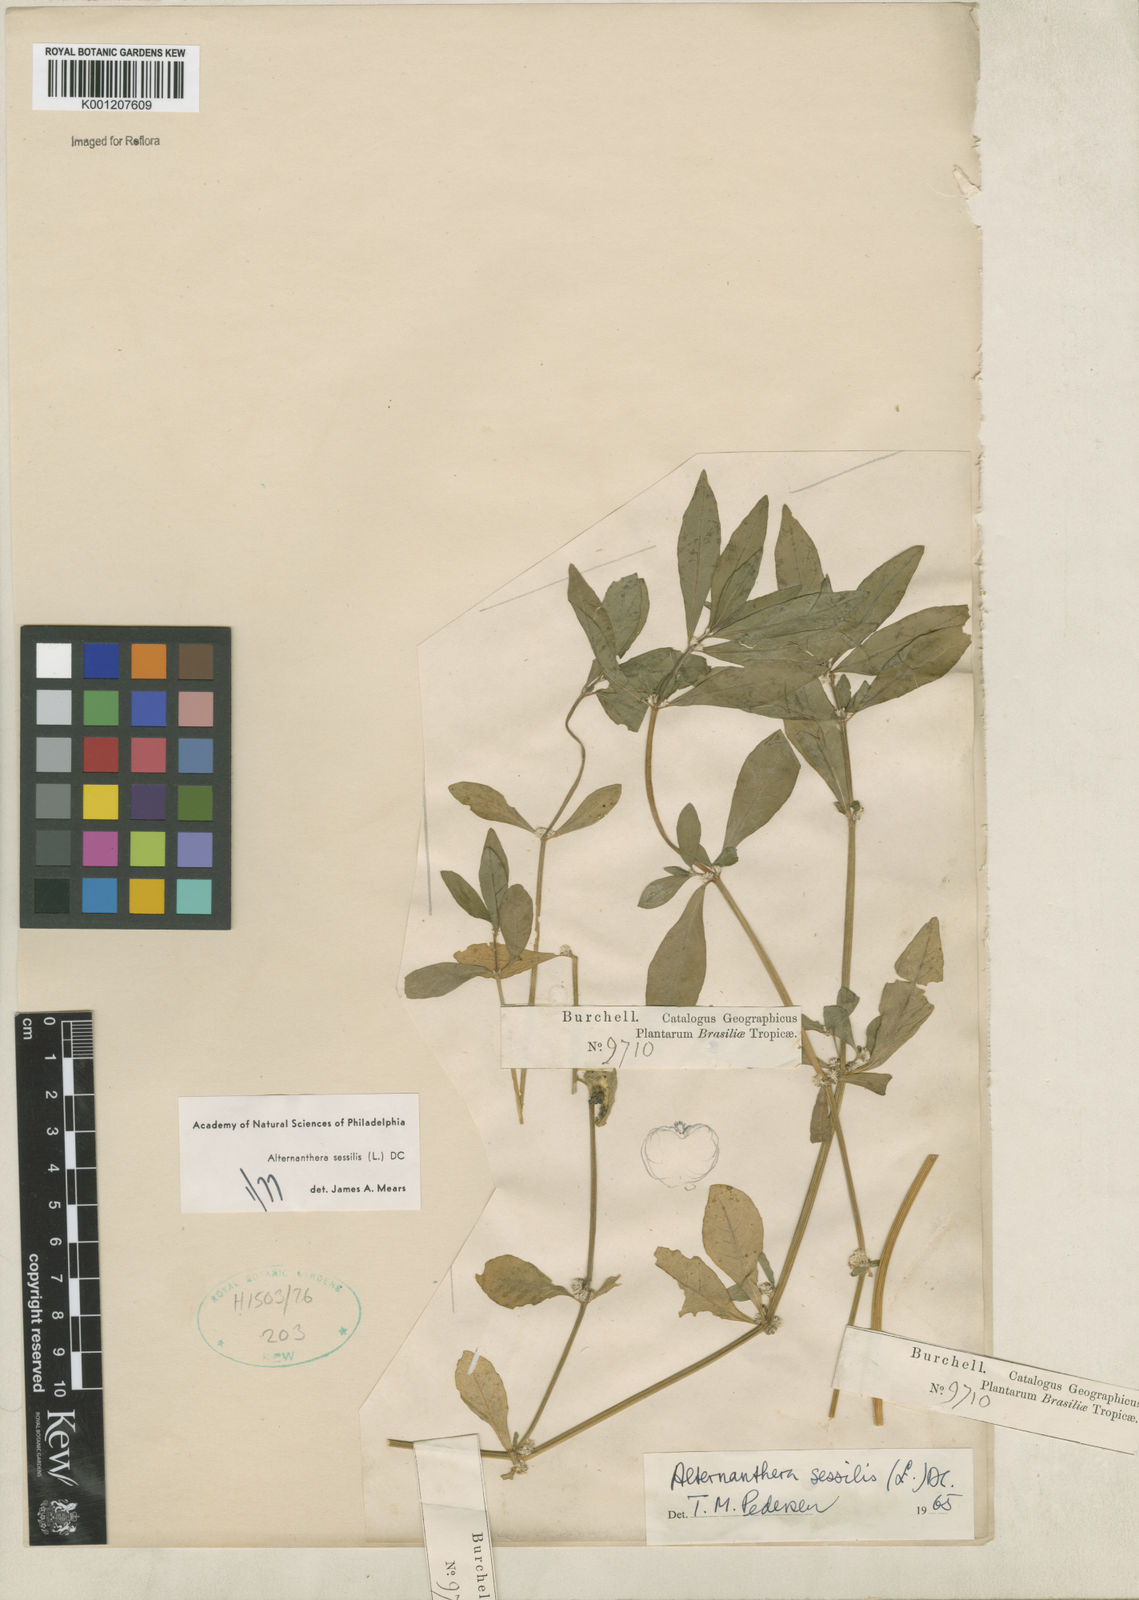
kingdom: Plantae
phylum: Tracheophyta
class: Magnoliopsida
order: Caryophyllales
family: Amaranthaceae
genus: Alternanthera
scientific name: Alternanthera
